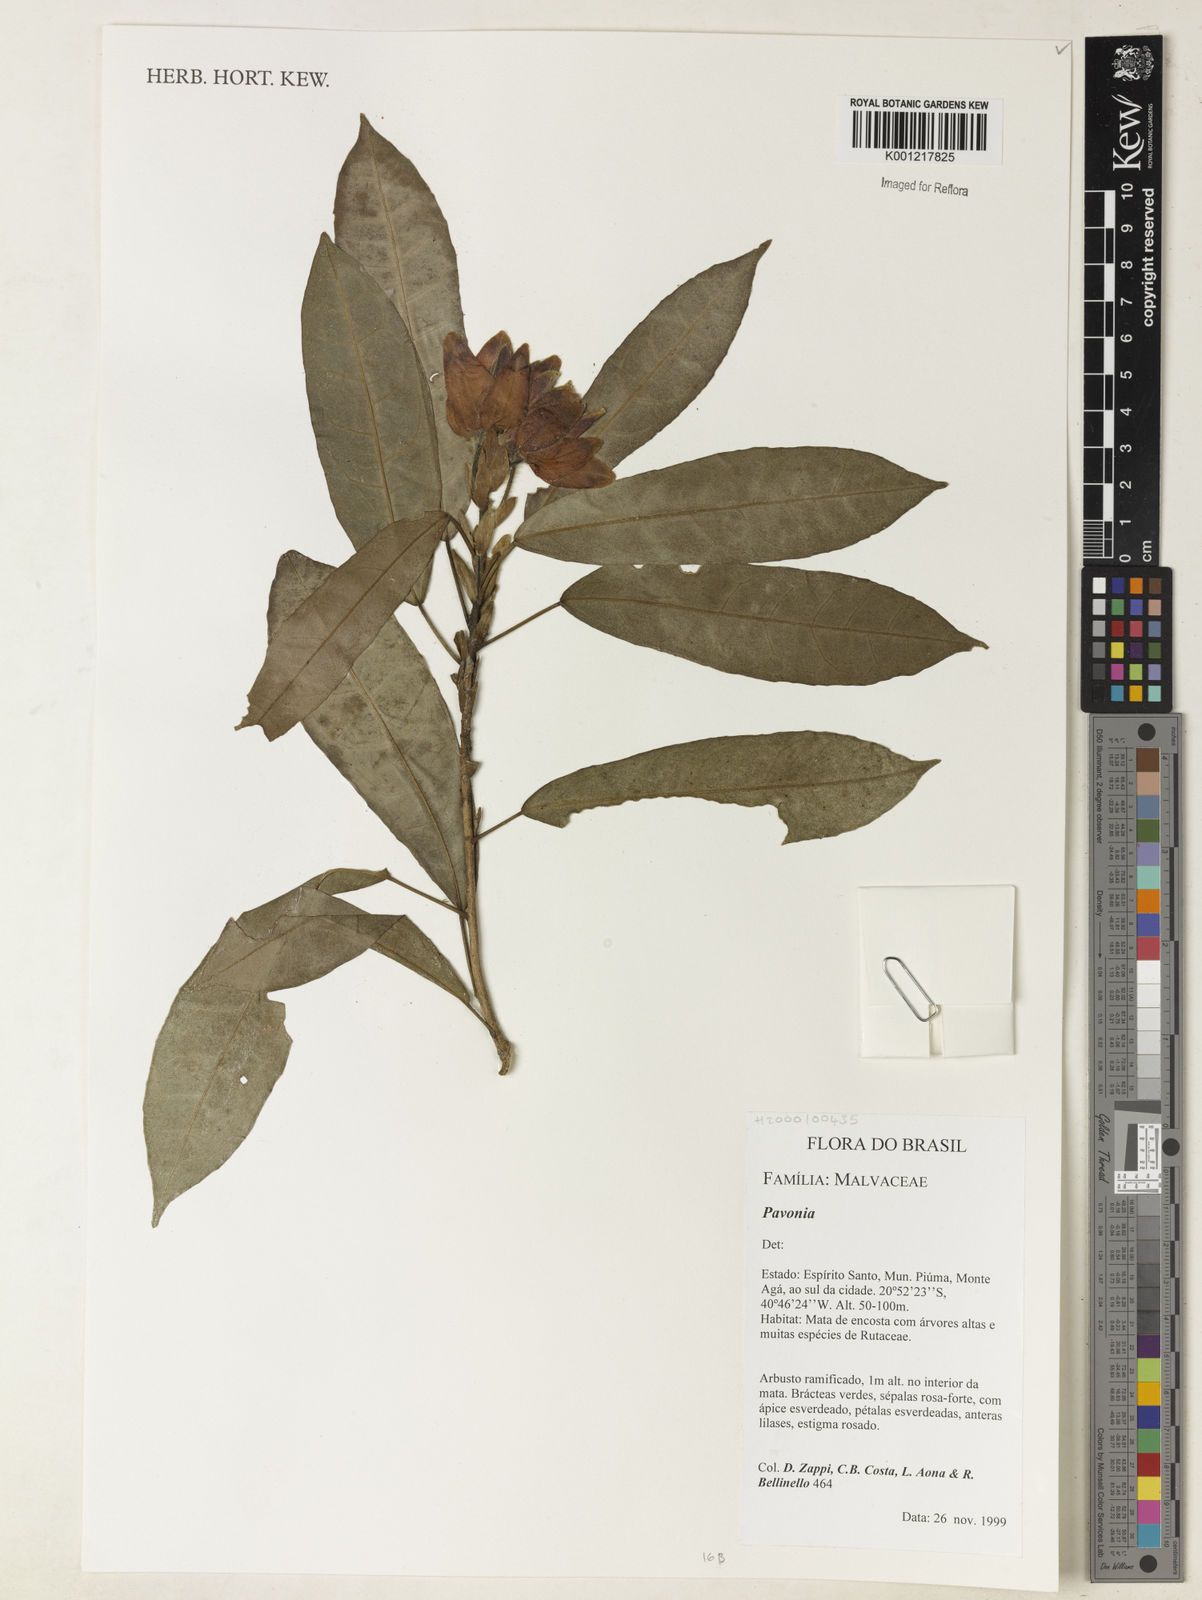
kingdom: Plantae
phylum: Tracheophyta
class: Magnoliopsida
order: Malvales
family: Malvaceae
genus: Pavonia
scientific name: Pavonia
